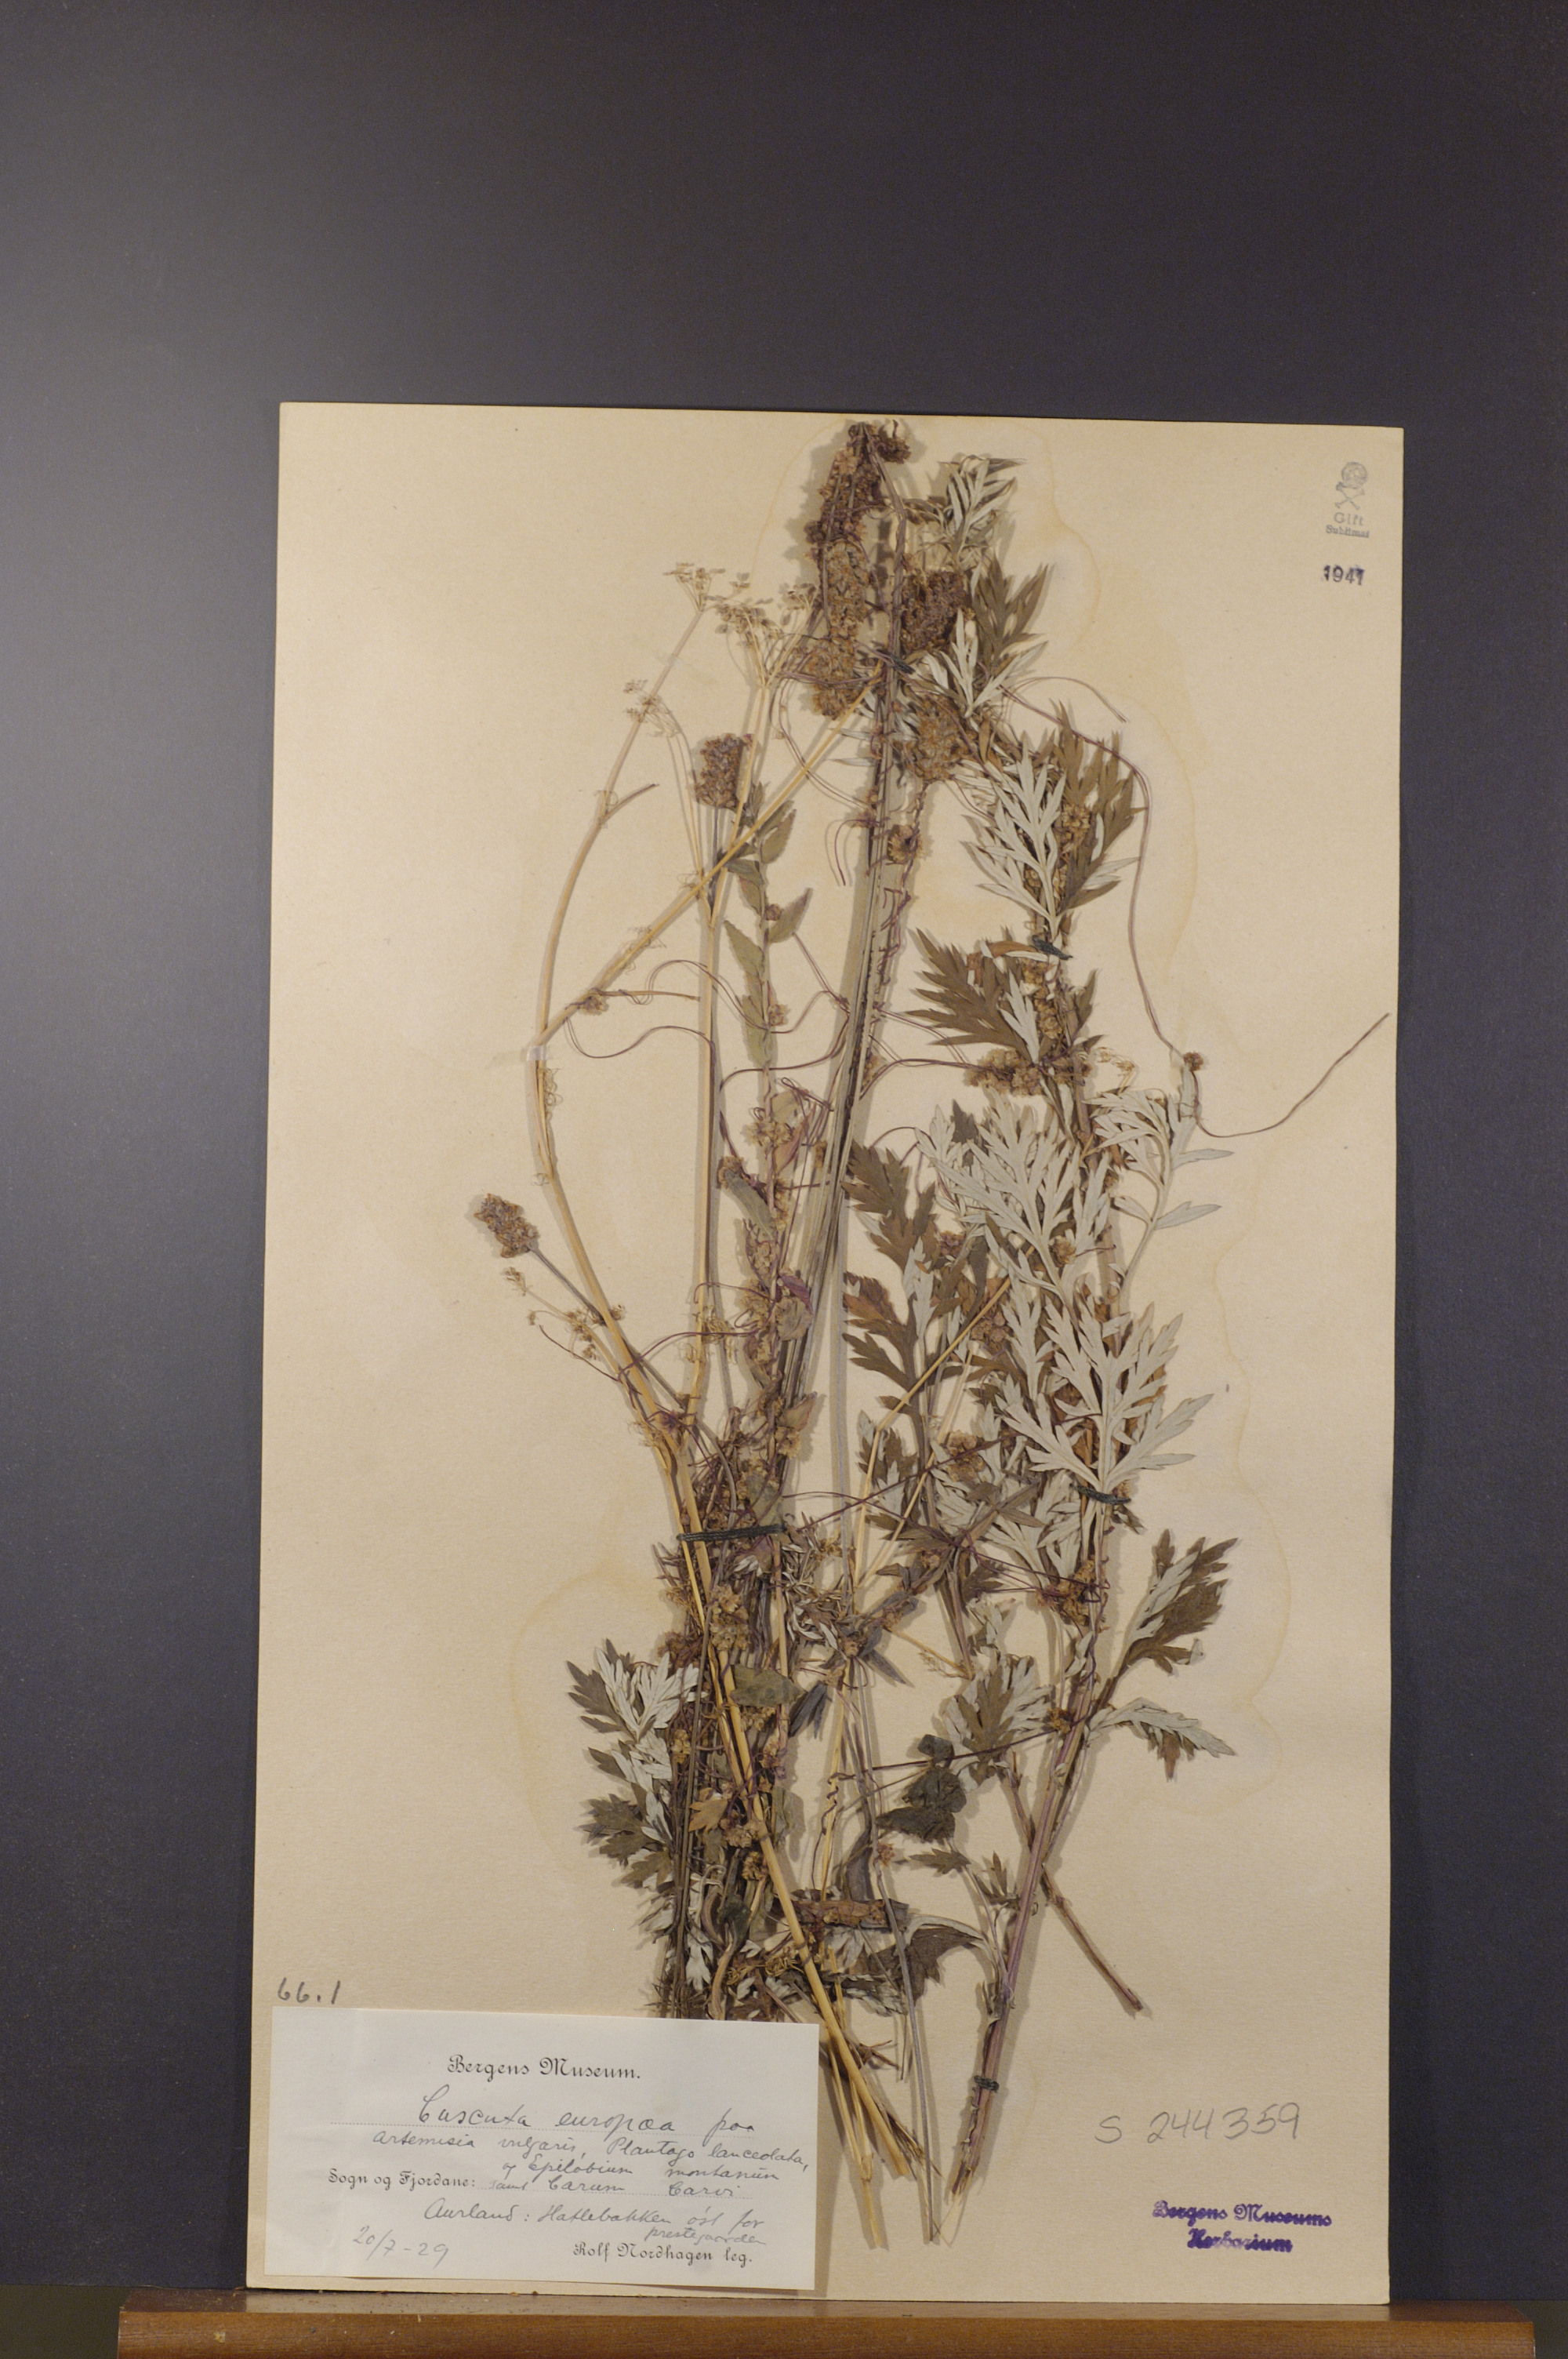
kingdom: Plantae
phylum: Tracheophyta
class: Magnoliopsida
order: Solanales
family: Convolvulaceae
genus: Cuscuta
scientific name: Cuscuta europaea
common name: Greater dodder
